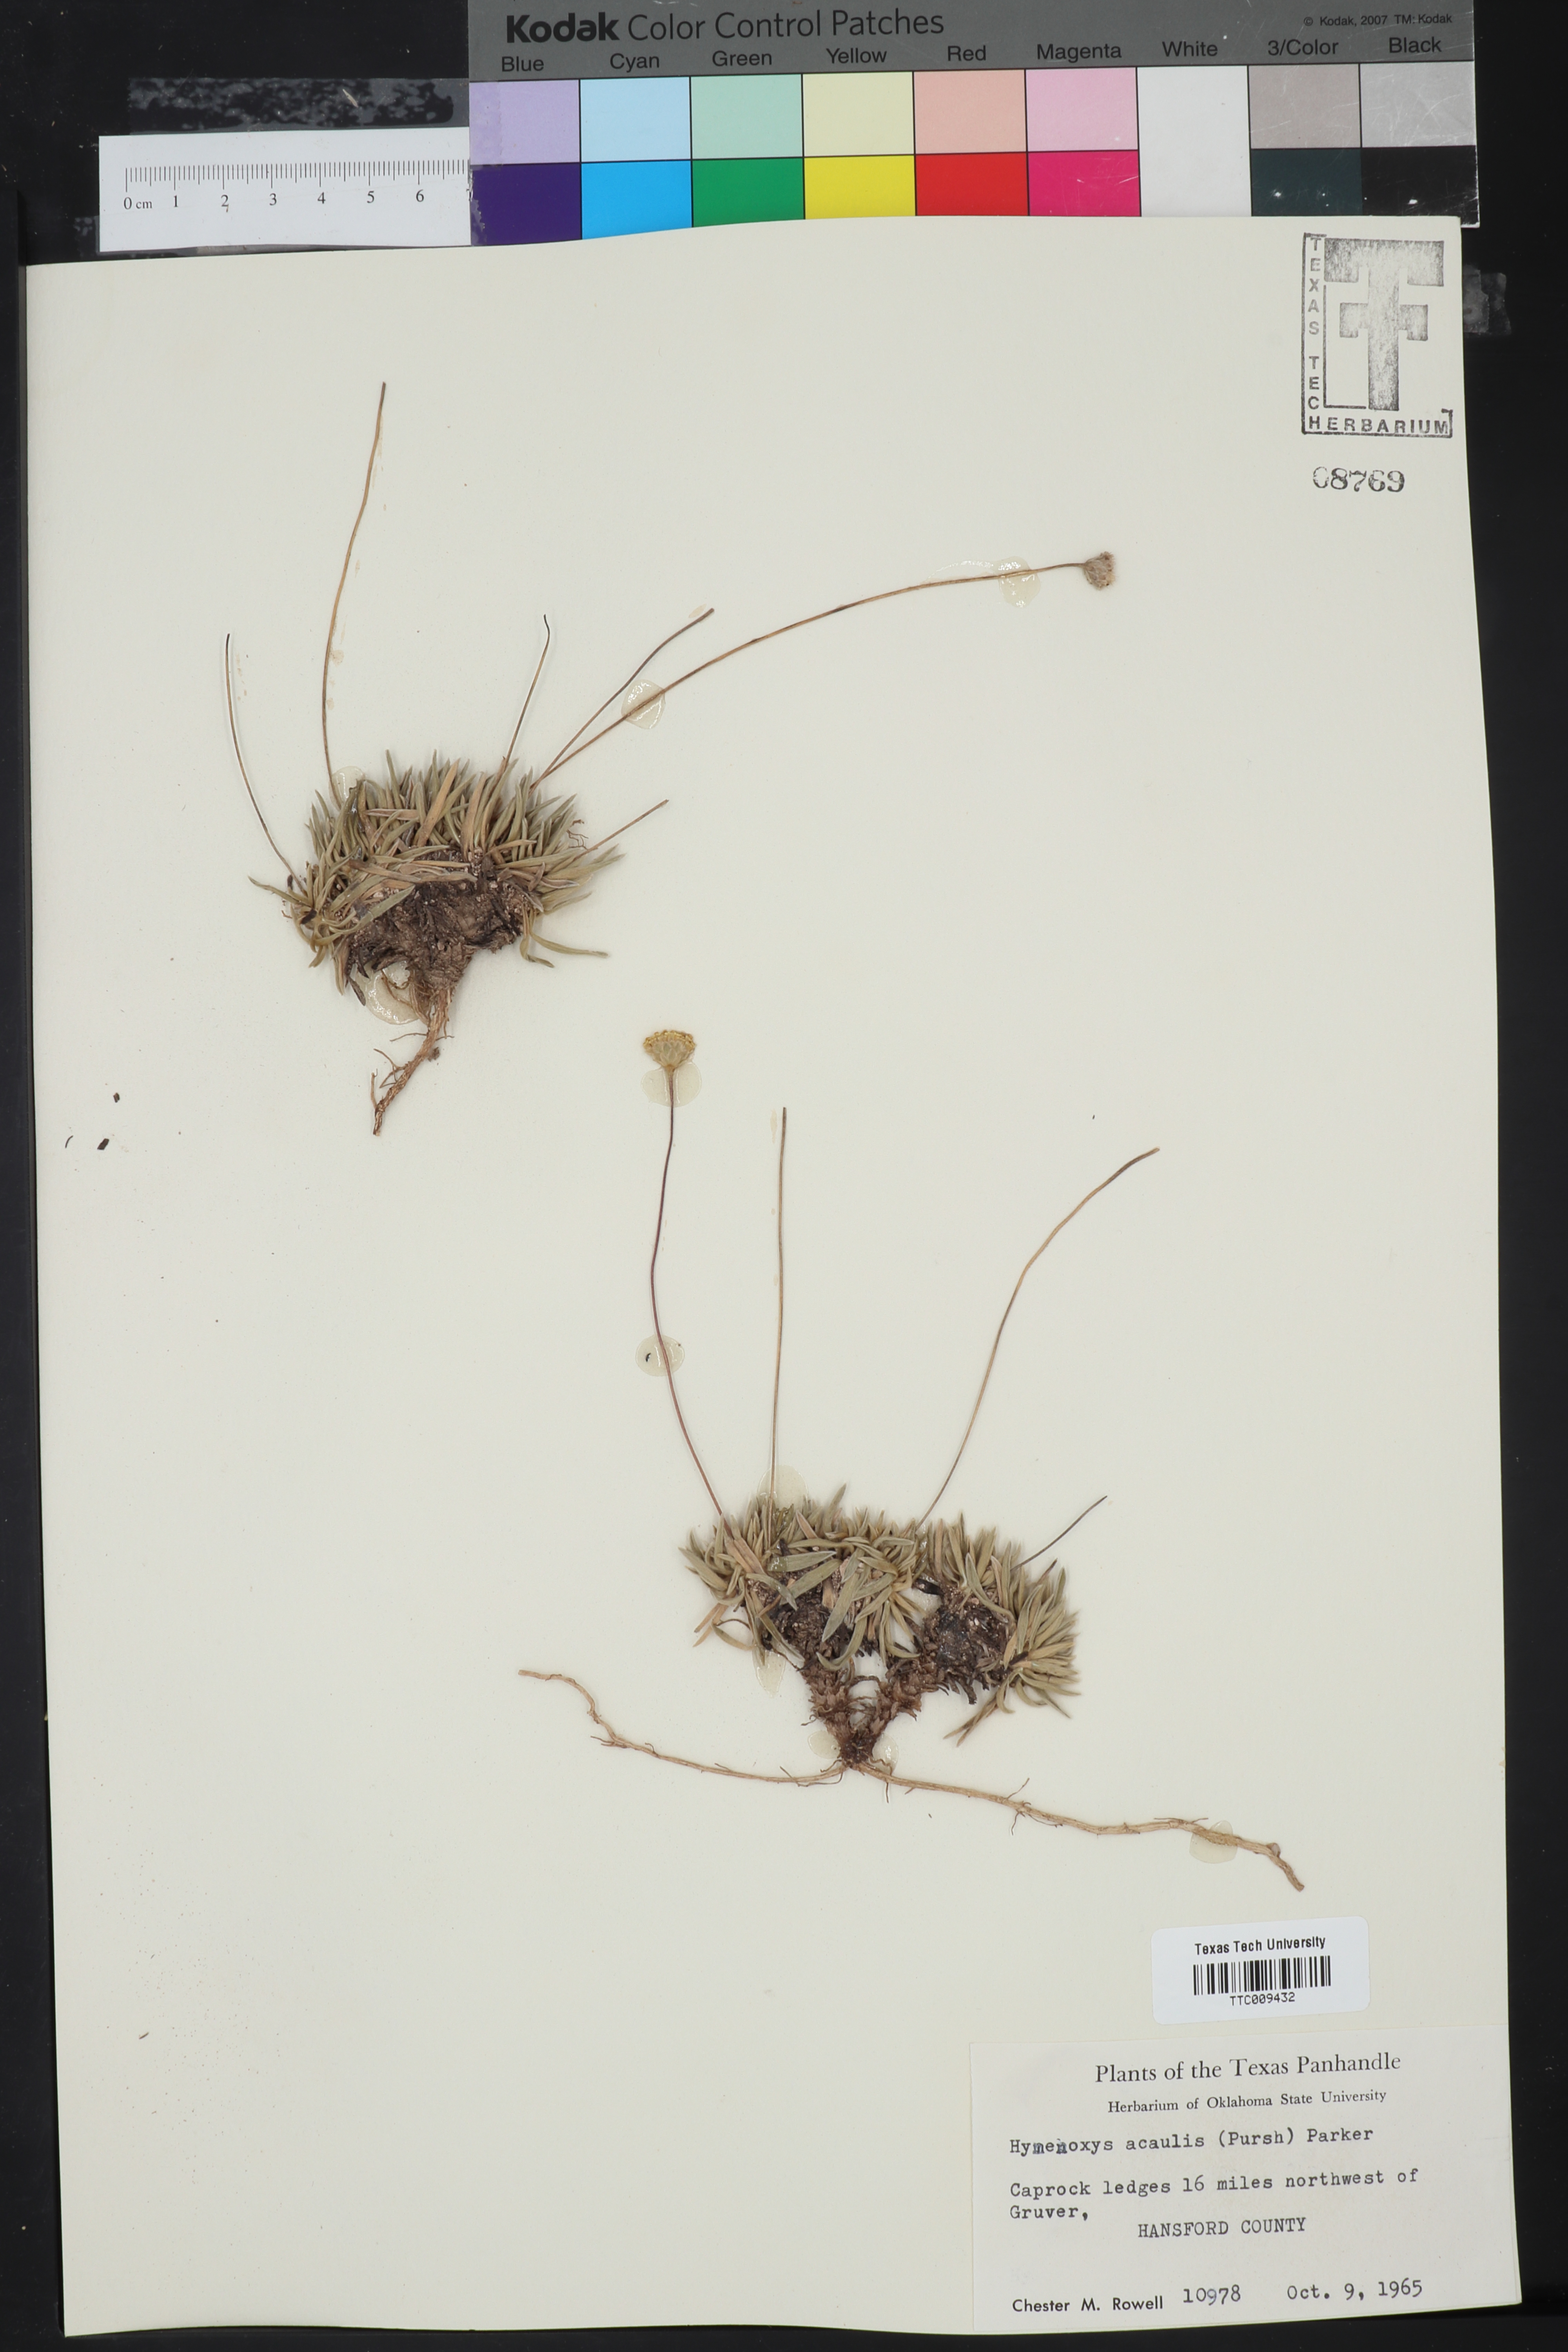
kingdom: Plantae
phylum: Tracheophyta
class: Magnoliopsida
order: Asterales
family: Asteraceae
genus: Tetraneuris
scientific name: Tetraneuris acaulis
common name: Butte marigold
